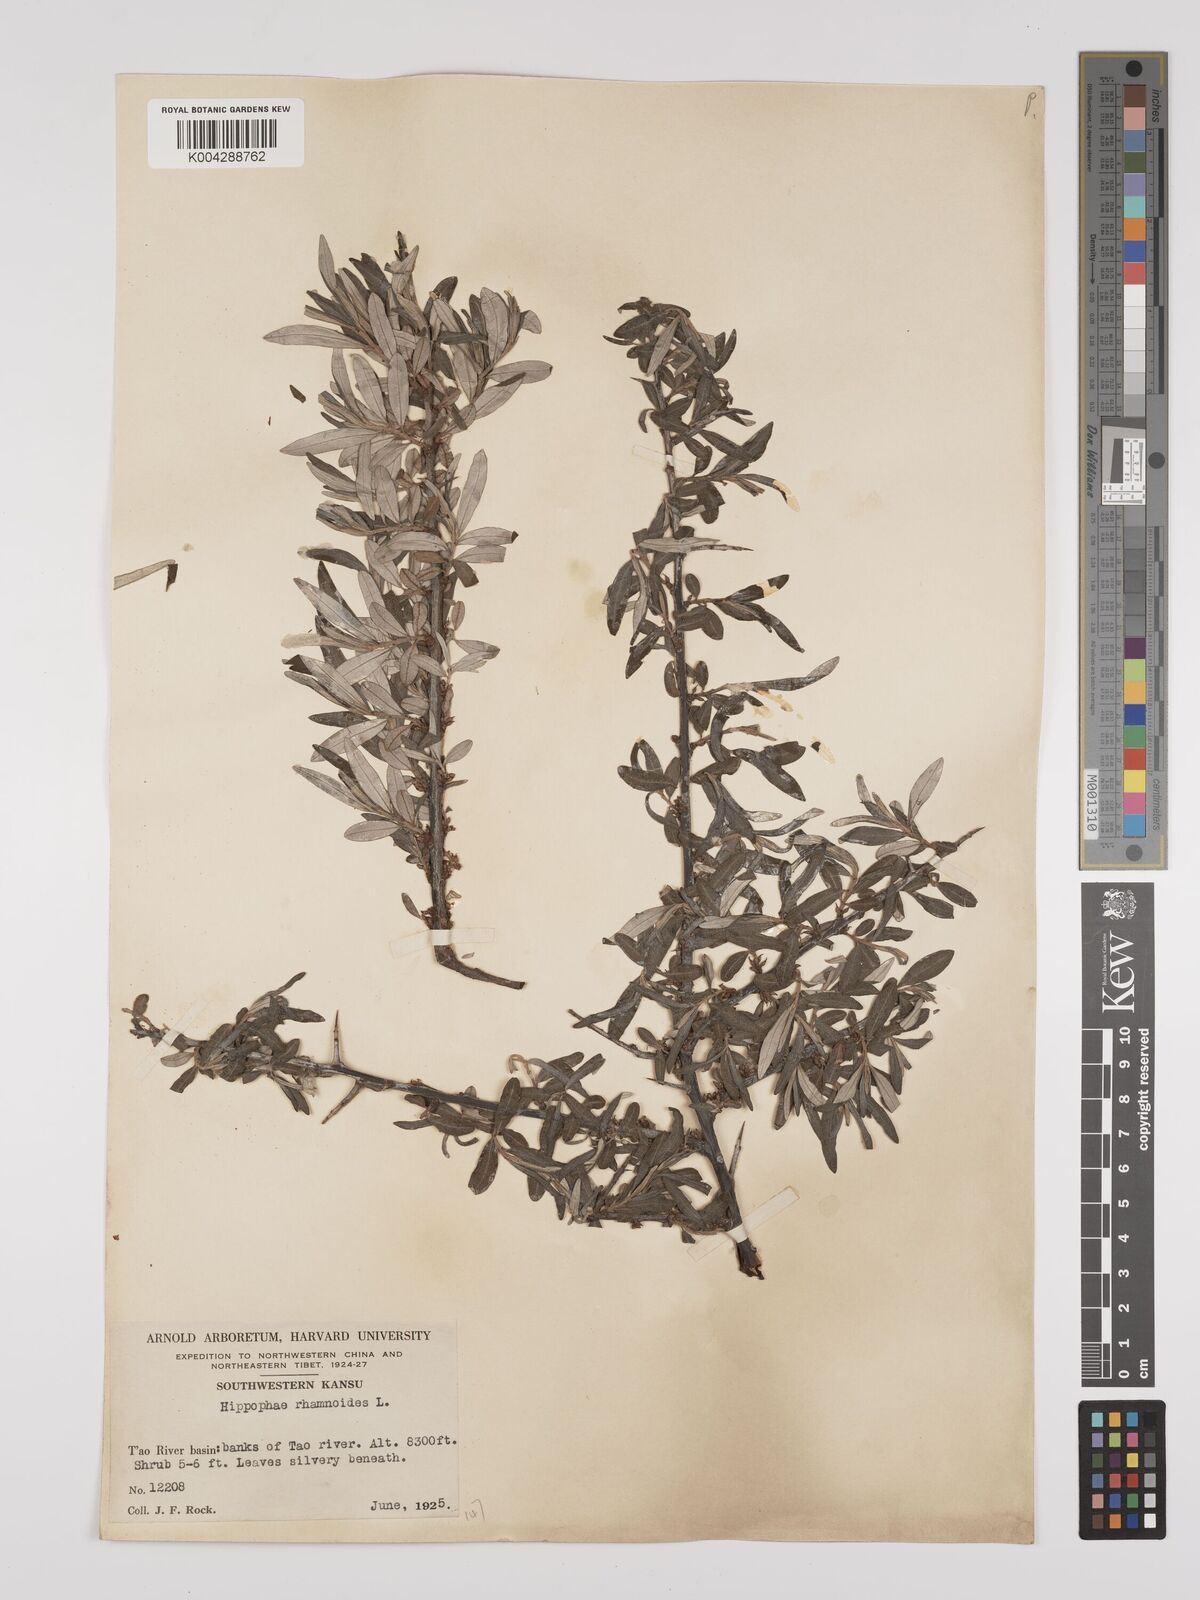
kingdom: Plantae
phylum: Tracheophyta
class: Magnoliopsida
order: Rosales
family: Elaeagnaceae
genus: Hippophae
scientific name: Hippophae rhamnoides
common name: Sea-buckthorn
